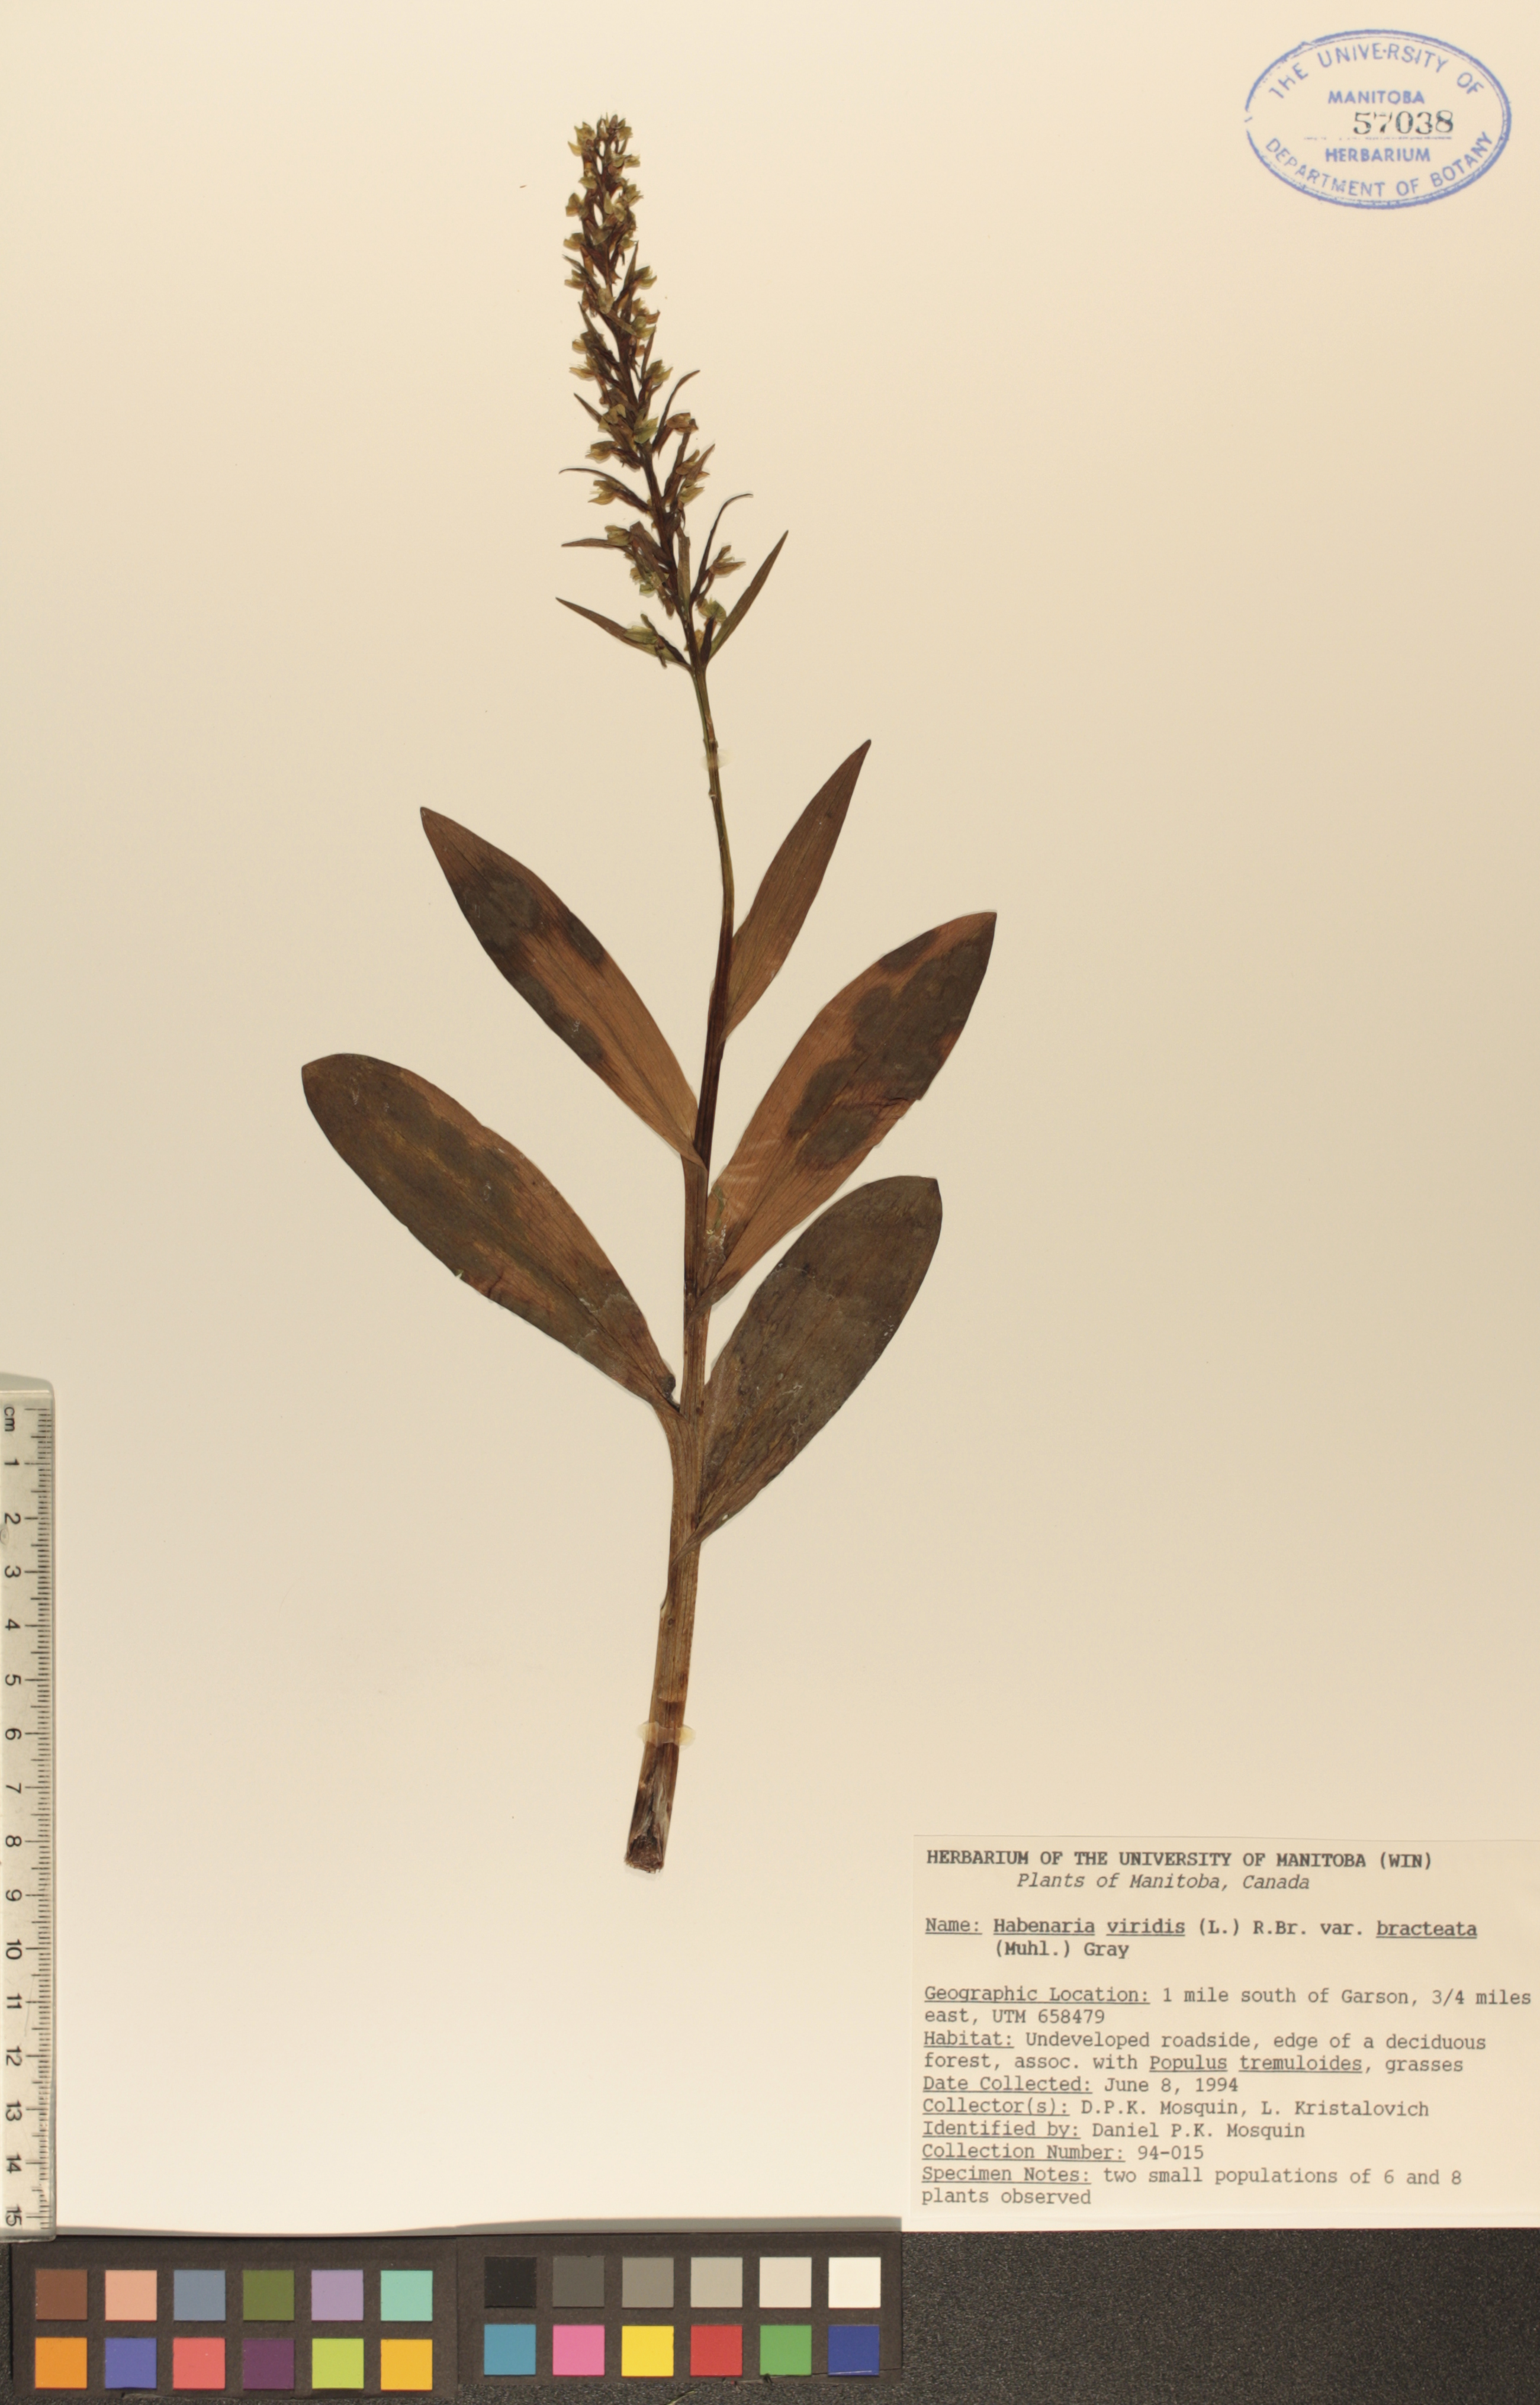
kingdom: Plantae
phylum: Tracheophyta
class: Liliopsida
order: Asparagales
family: Orchidaceae
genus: Dactylorhiza
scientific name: Dactylorhiza viridis
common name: Longbract frog orchid
